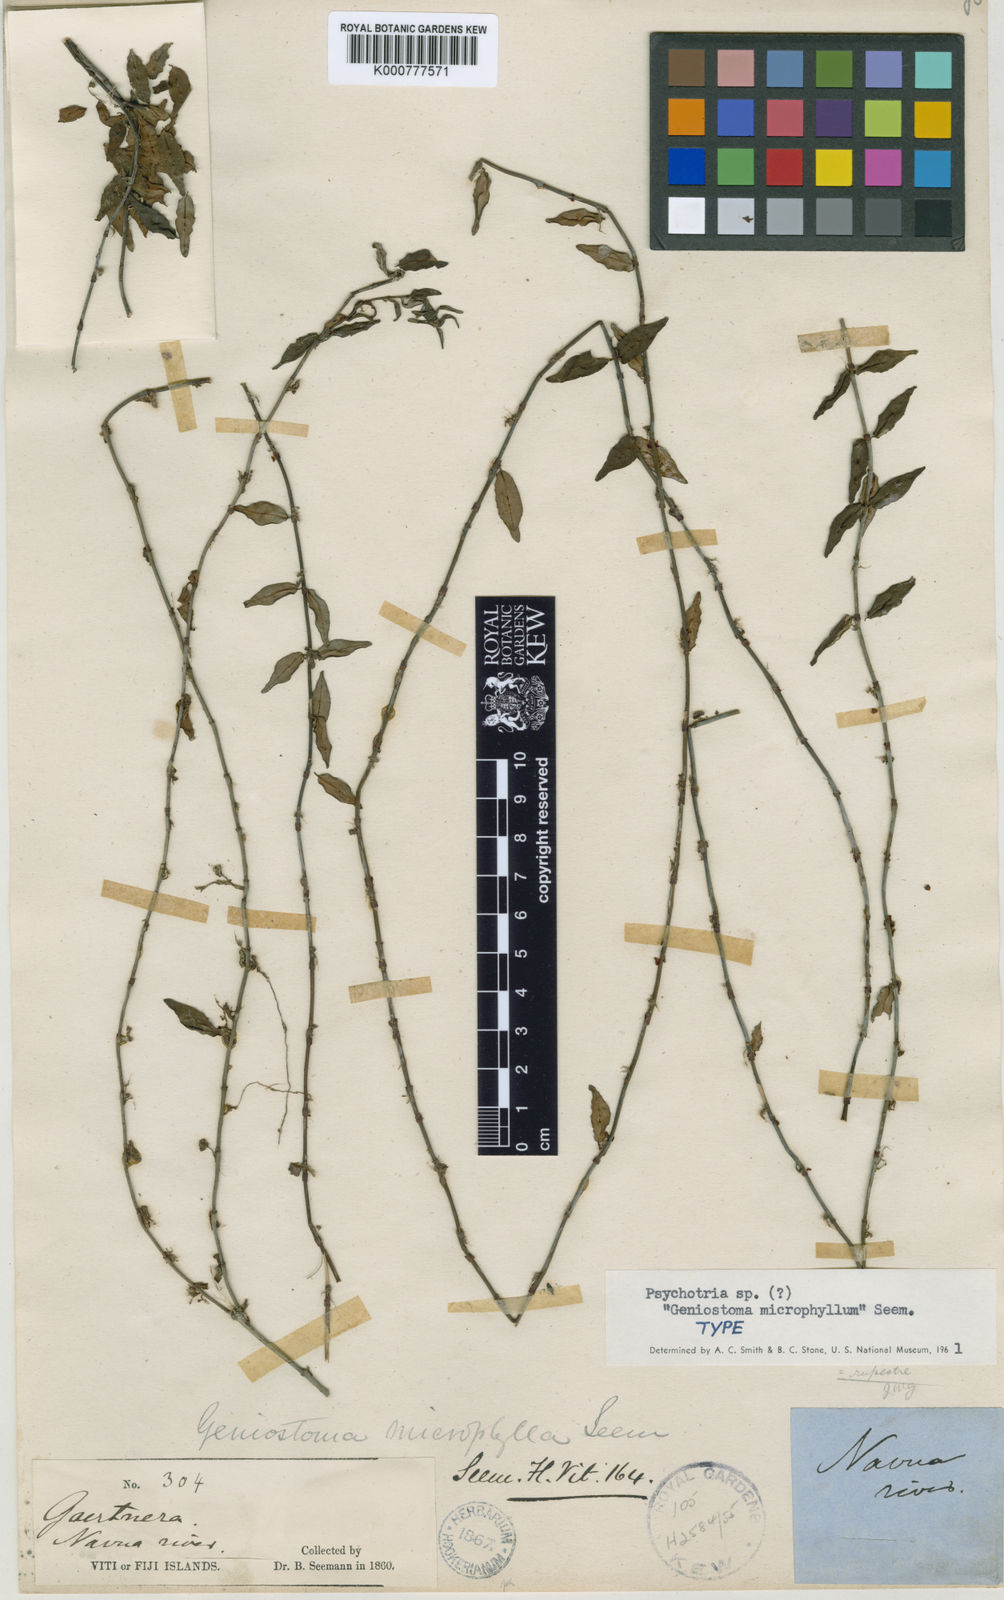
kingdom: Plantae
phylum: Tracheophyta
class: Magnoliopsida
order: Gentianales
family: Rubiaceae
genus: Psychotria
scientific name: Psychotria
